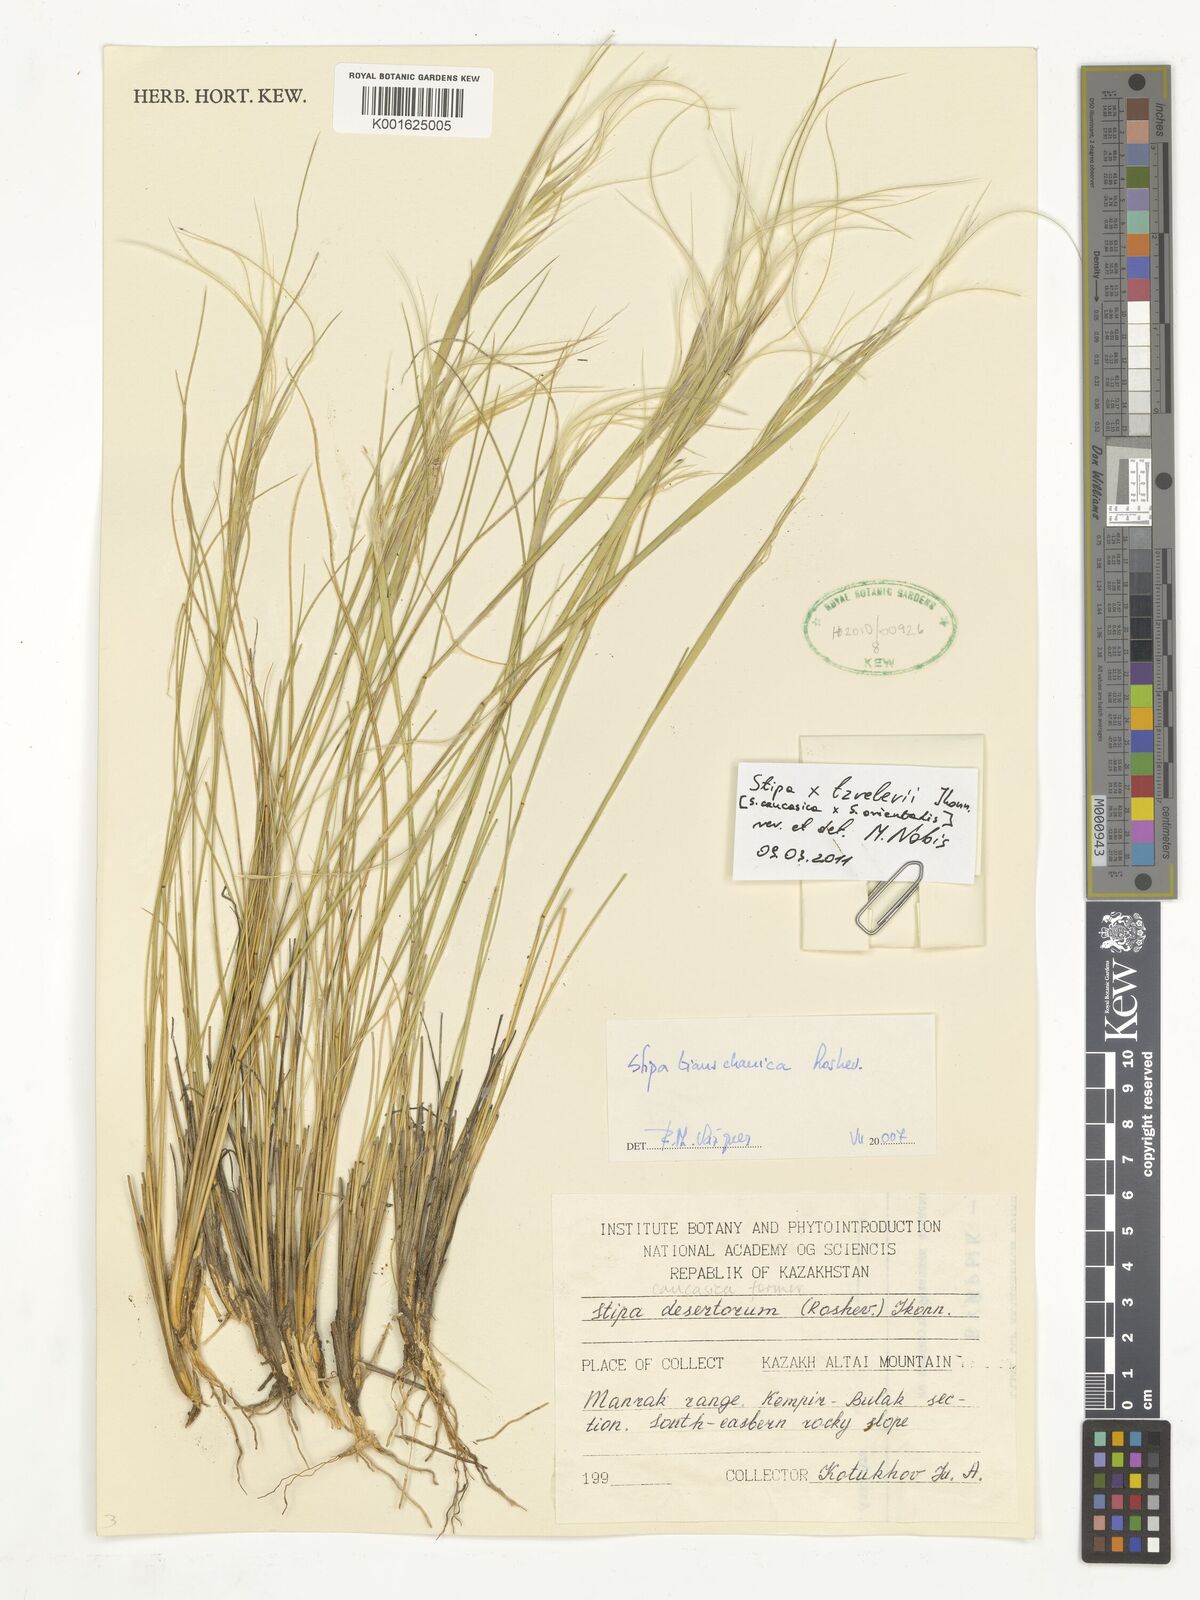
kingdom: Plantae
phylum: Tracheophyta
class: Liliopsida
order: Poales
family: Poaceae
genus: Stipa
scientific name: Stipa tzvelevii
